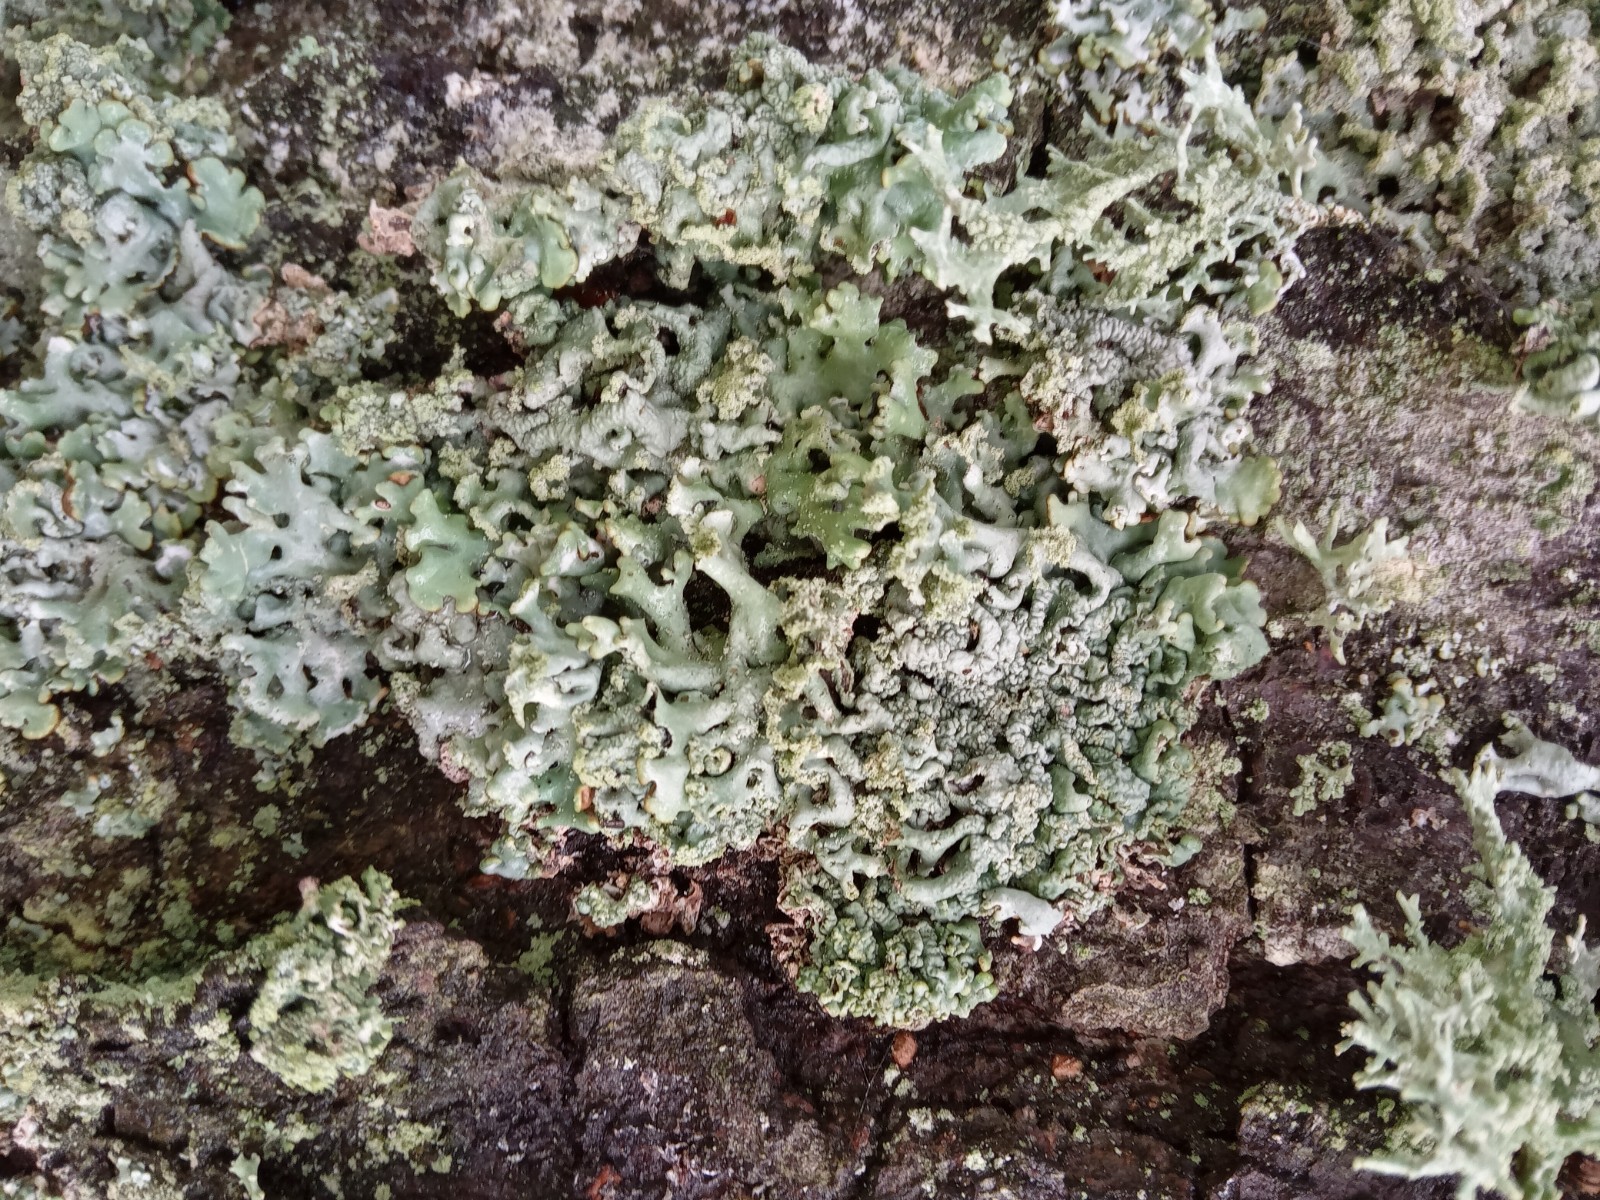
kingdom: Fungi
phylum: Ascomycota
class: Lecanoromycetes
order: Lecanorales
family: Parmeliaceae
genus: Hypogymnia
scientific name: Hypogymnia physodes
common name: almindelig kvistlav
